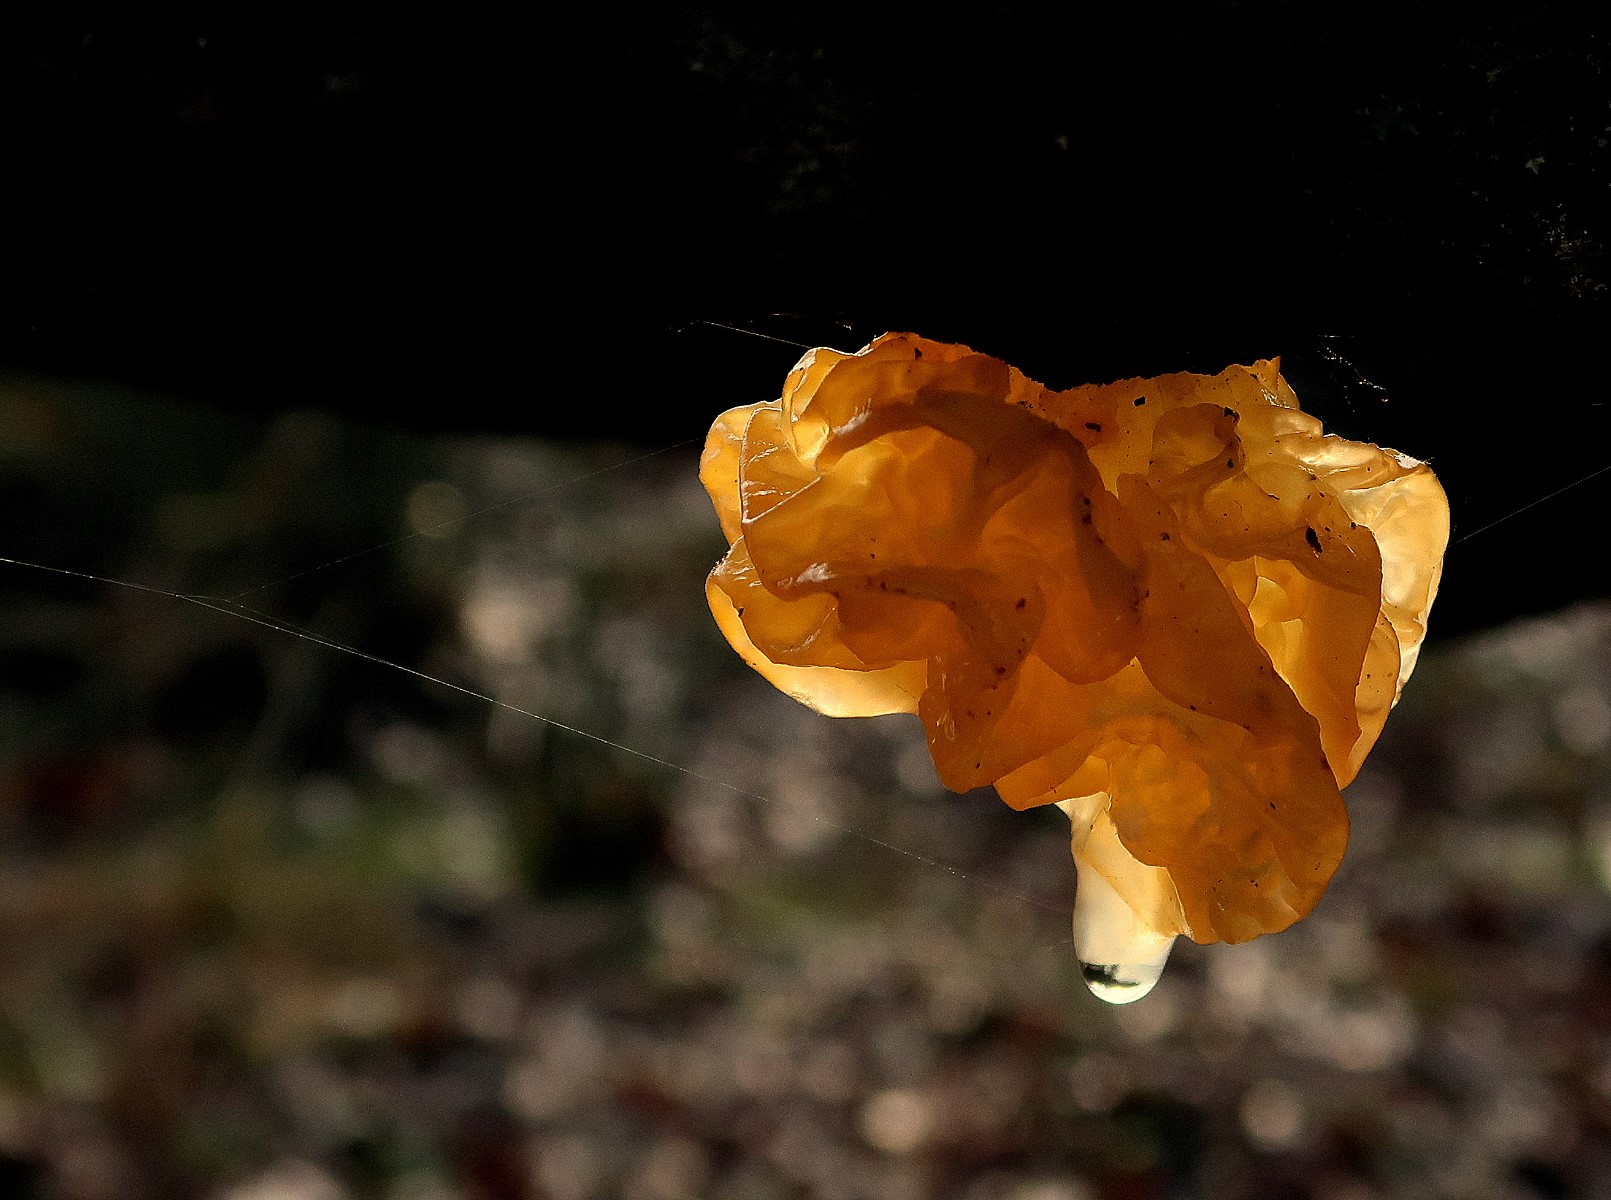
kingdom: Fungi
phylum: Basidiomycota
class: Tremellomycetes
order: Tremellales
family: Tremellaceae
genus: Tremella
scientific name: Tremella mesenterica
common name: gul bævresvamp
